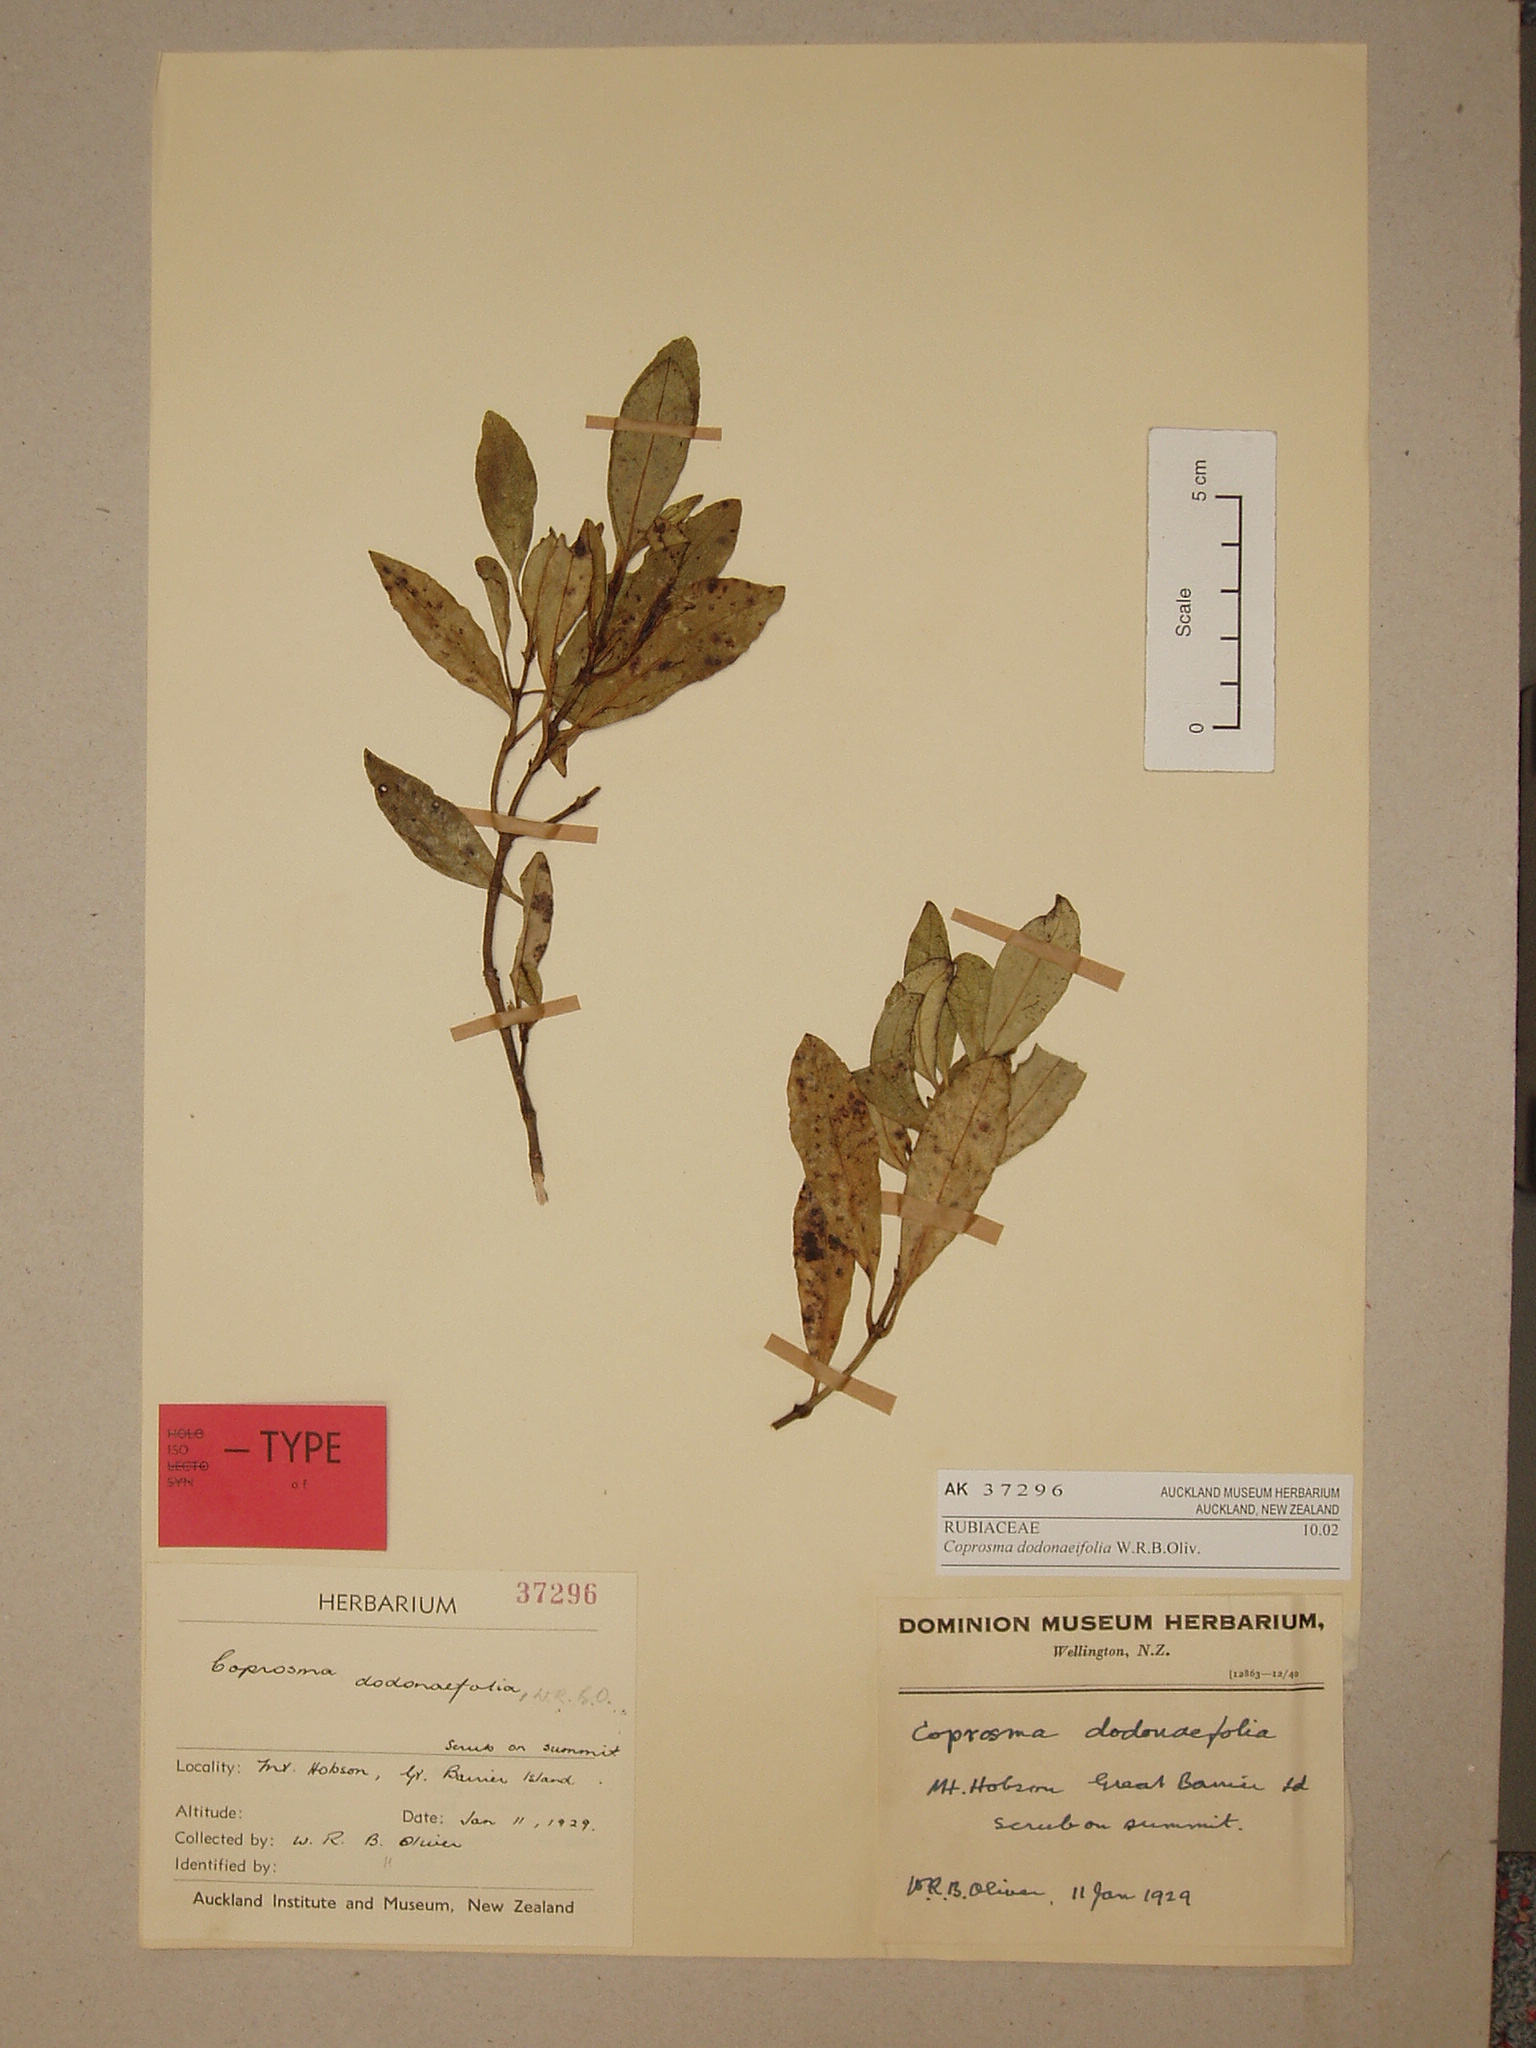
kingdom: Plantae
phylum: Tracheophyta
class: Magnoliopsida
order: Gentianales
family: Rubiaceae
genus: Coprosma
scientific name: Coprosma dodonaeifolia
